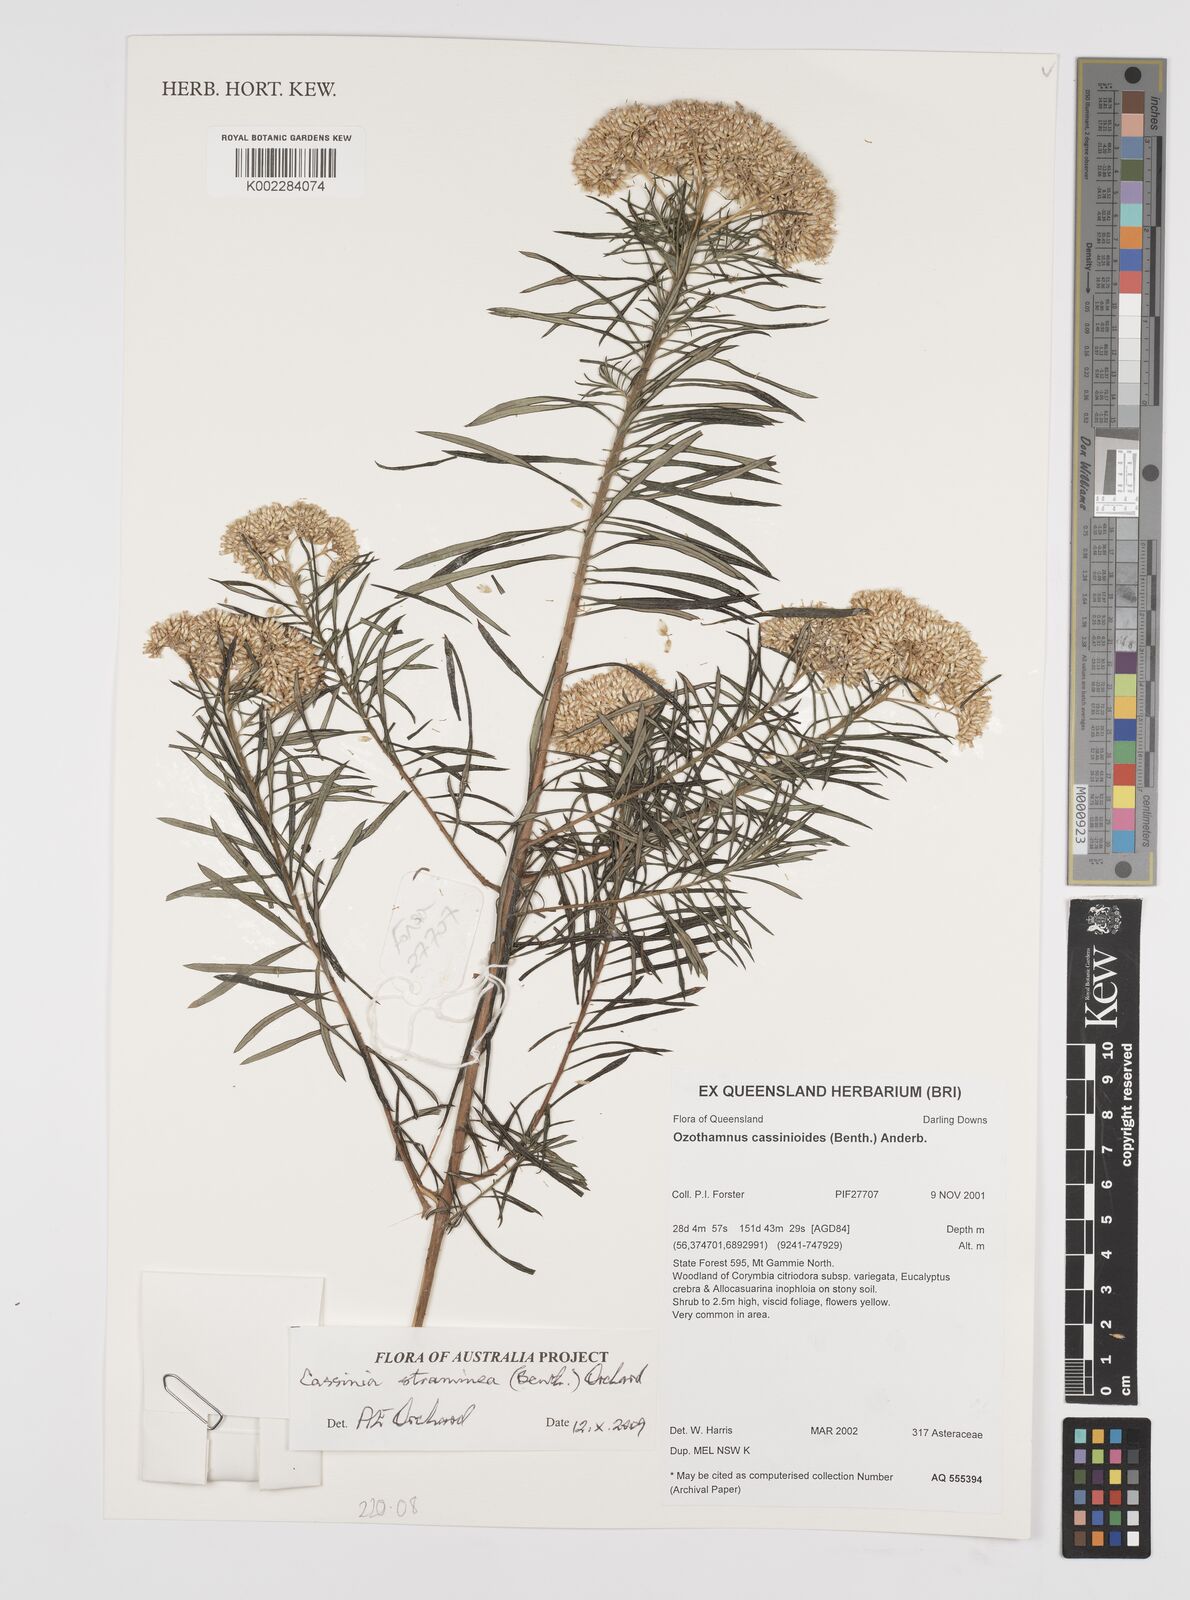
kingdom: Plantae
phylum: Tracheophyta
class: Magnoliopsida
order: Asterales
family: Asteraceae
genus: Cassinia
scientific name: Cassinia straminea
